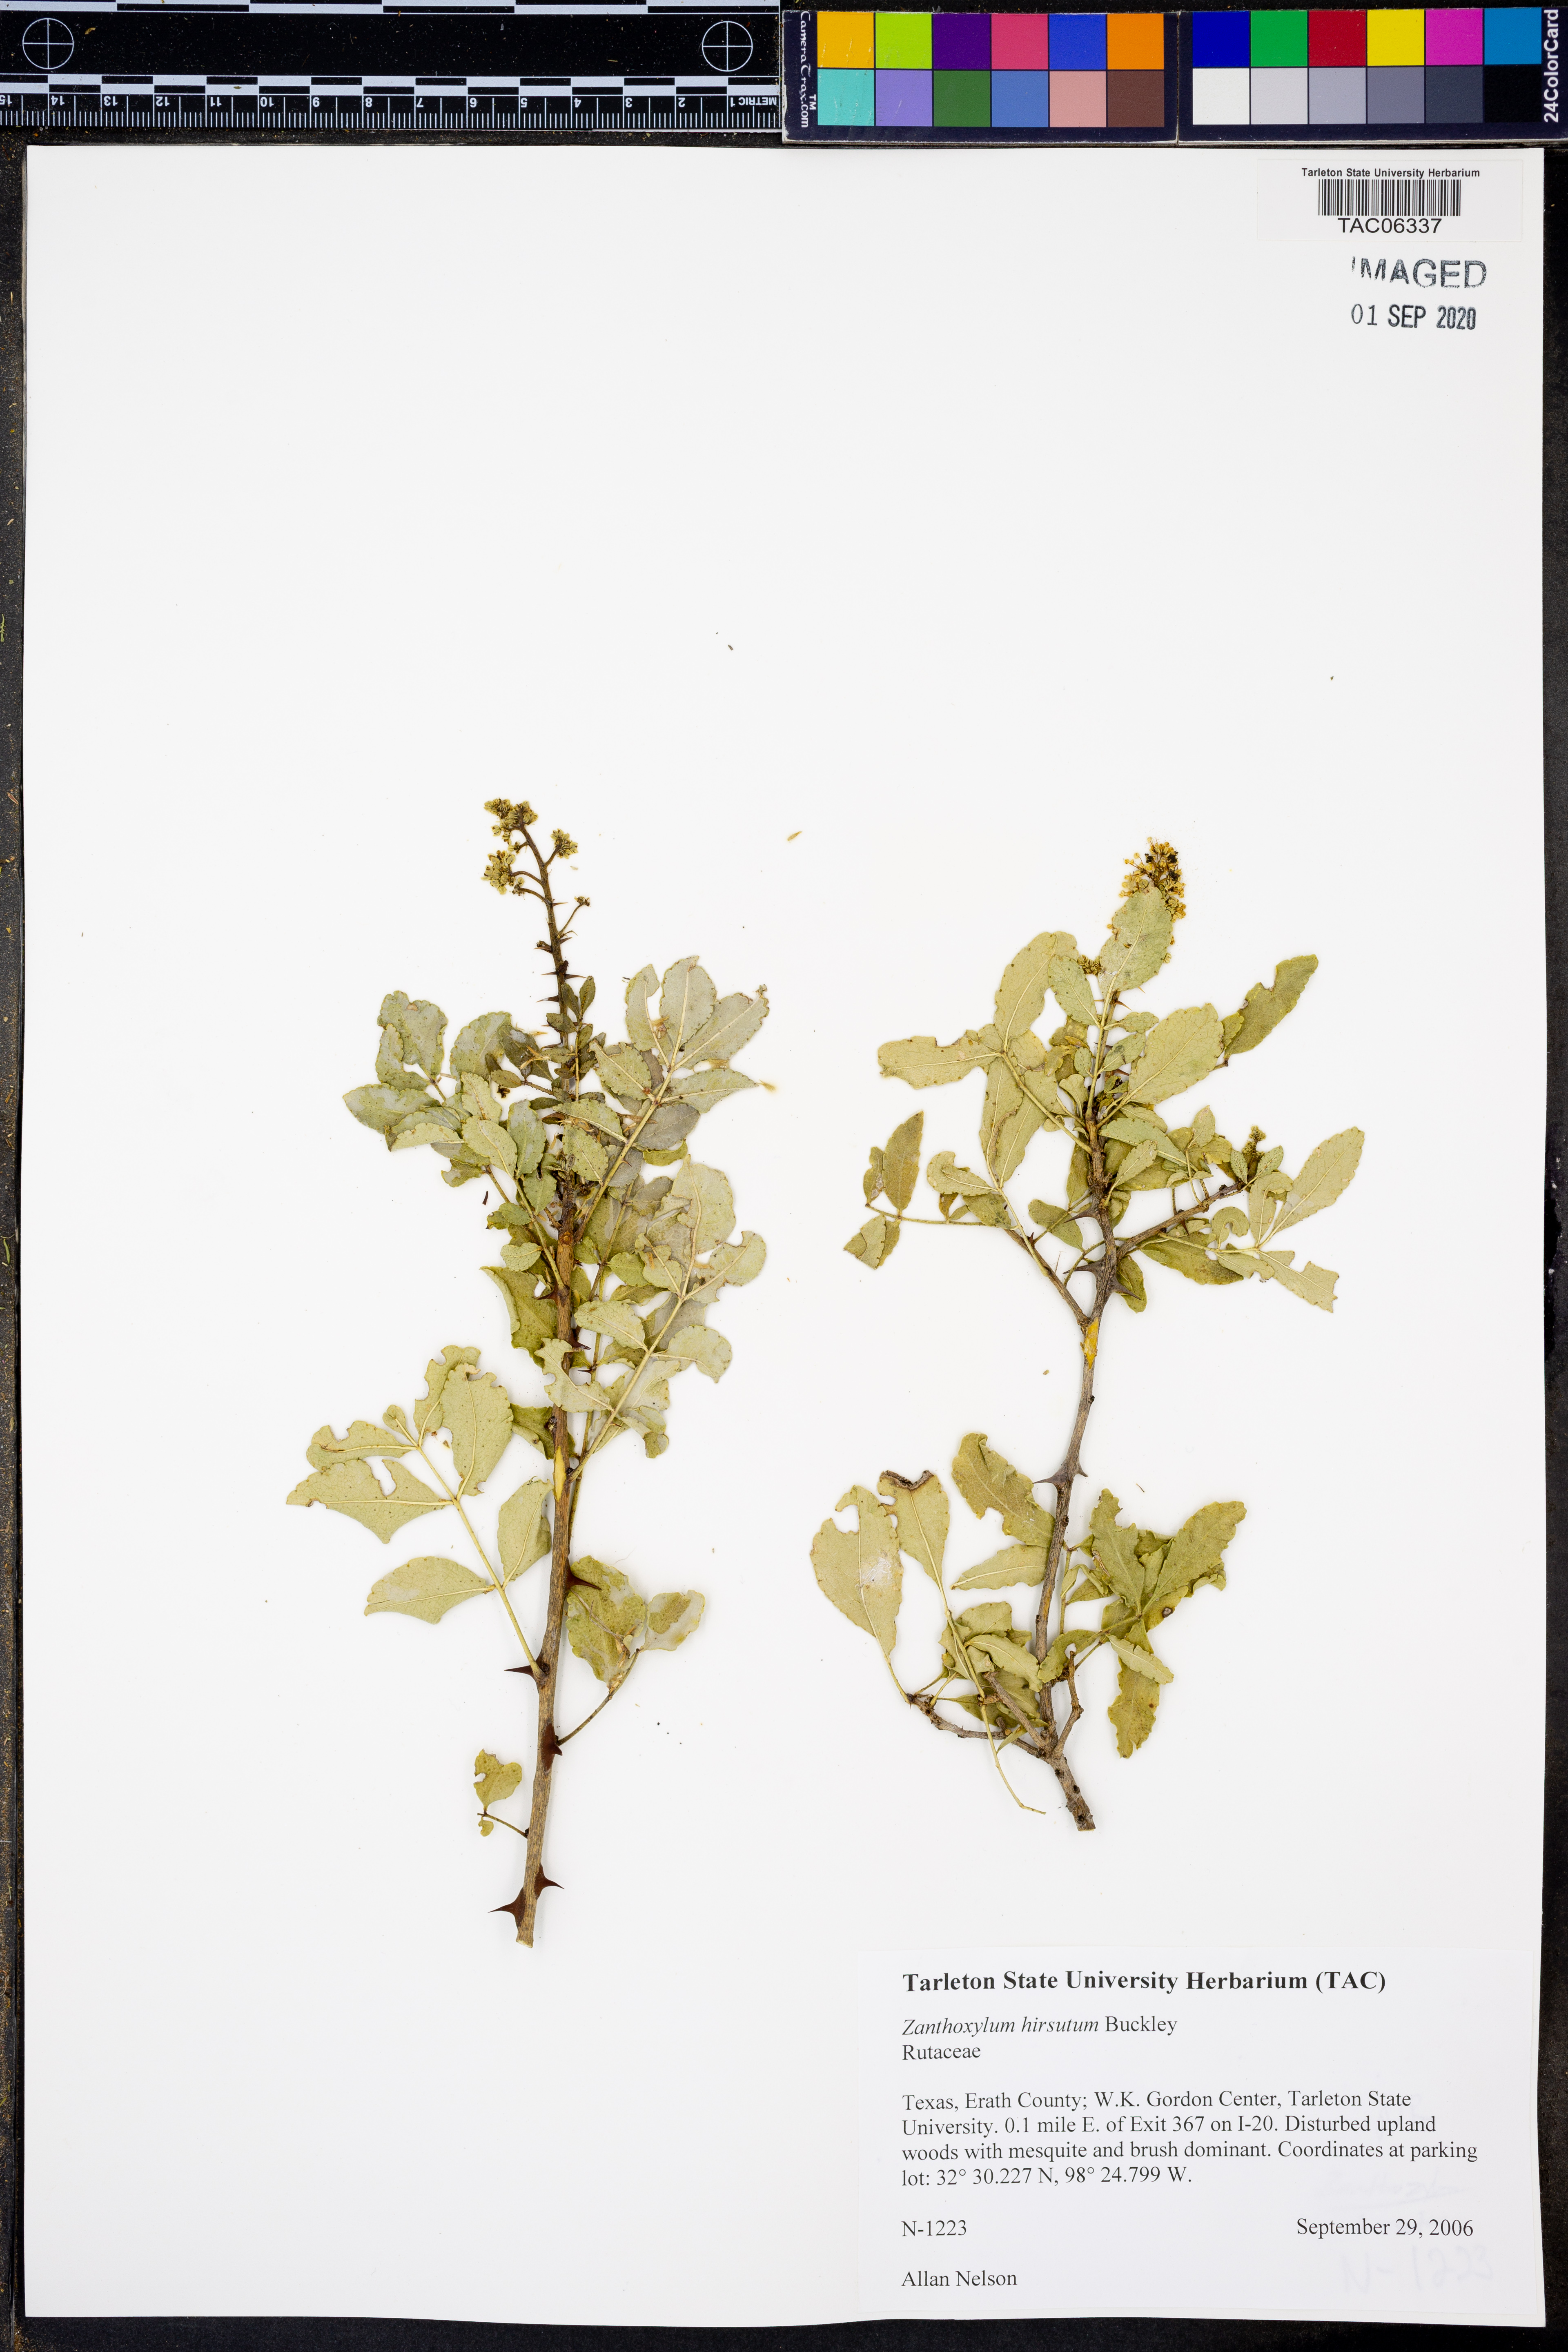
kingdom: Plantae
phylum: Tracheophyta
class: Magnoliopsida
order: Sapindales
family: Rutaceae
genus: Zanthoxylum
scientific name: Zanthoxylum clava-herculis
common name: Hercules'-club
